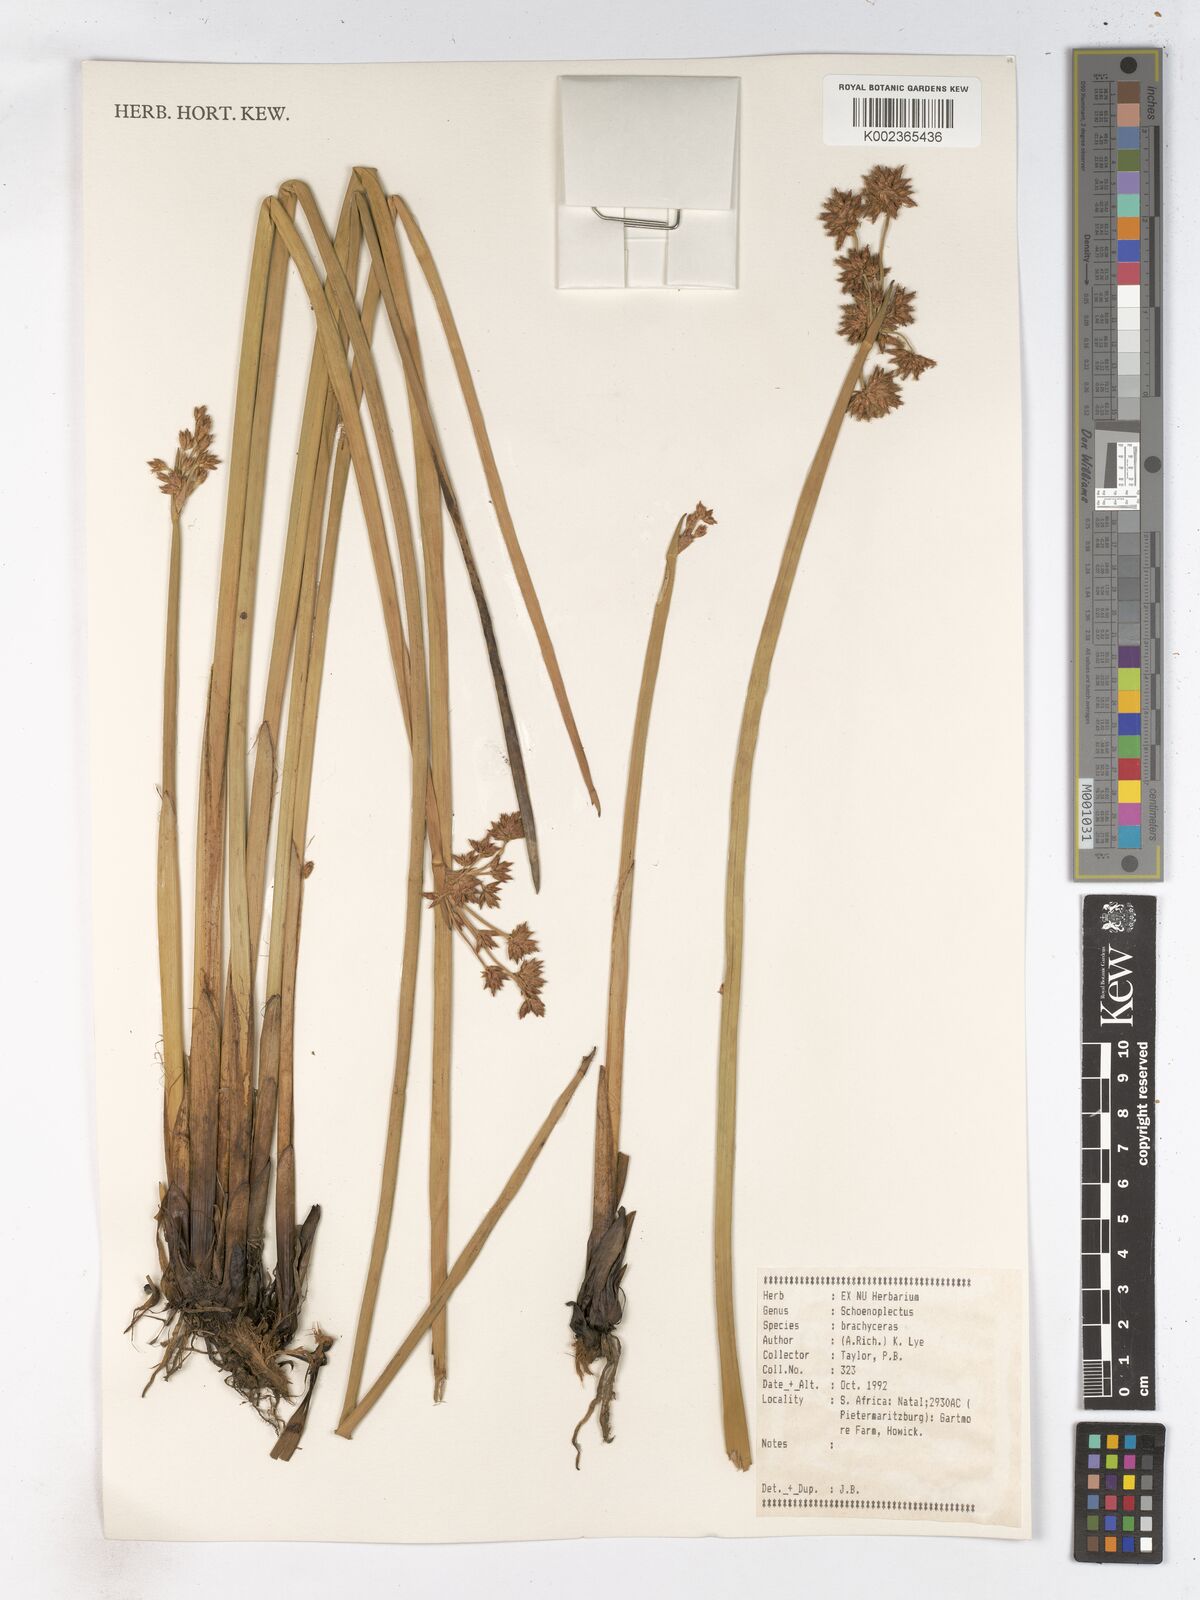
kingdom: Plantae
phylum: Tracheophyta
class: Liliopsida
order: Poales
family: Cyperaceae
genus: Schoenoplectiella
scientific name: Schoenoplectiella brachyceras
